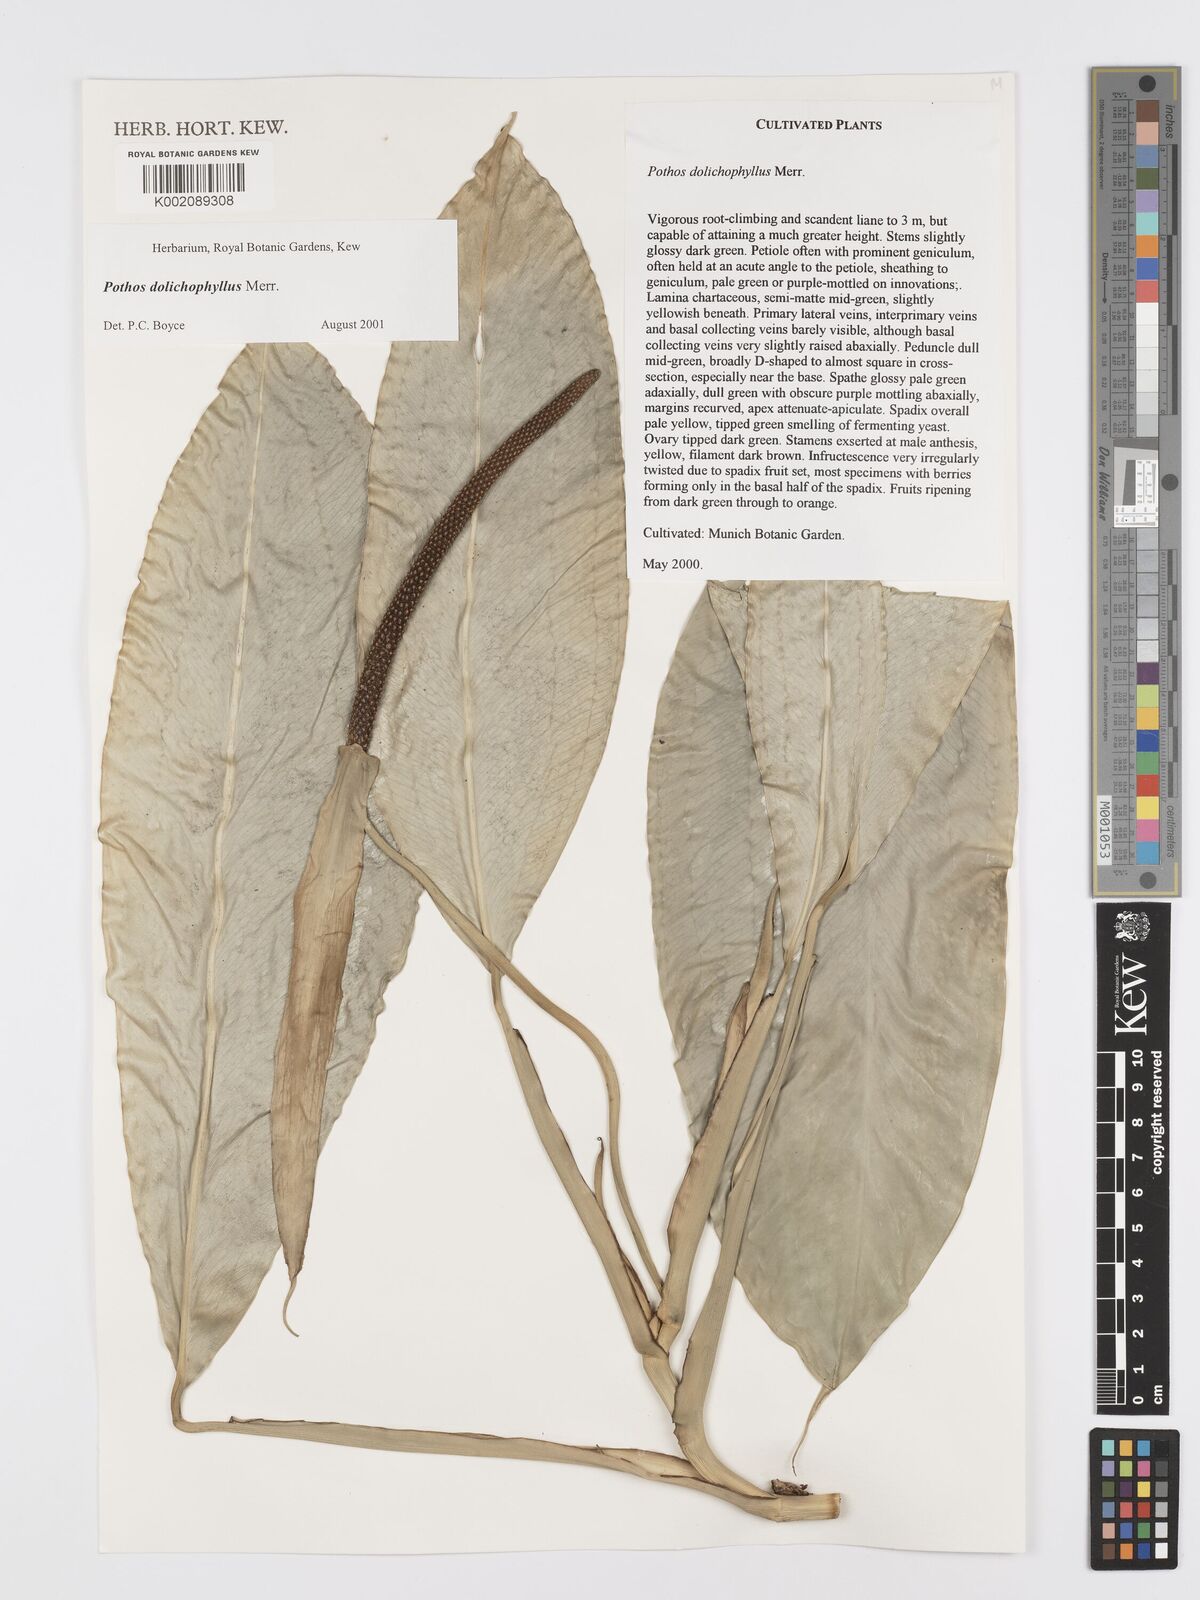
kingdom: Plantae
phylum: Tracheophyta
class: Liliopsida
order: Alismatales
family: Araceae
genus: Pothos
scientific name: Pothos dolichophyllus
